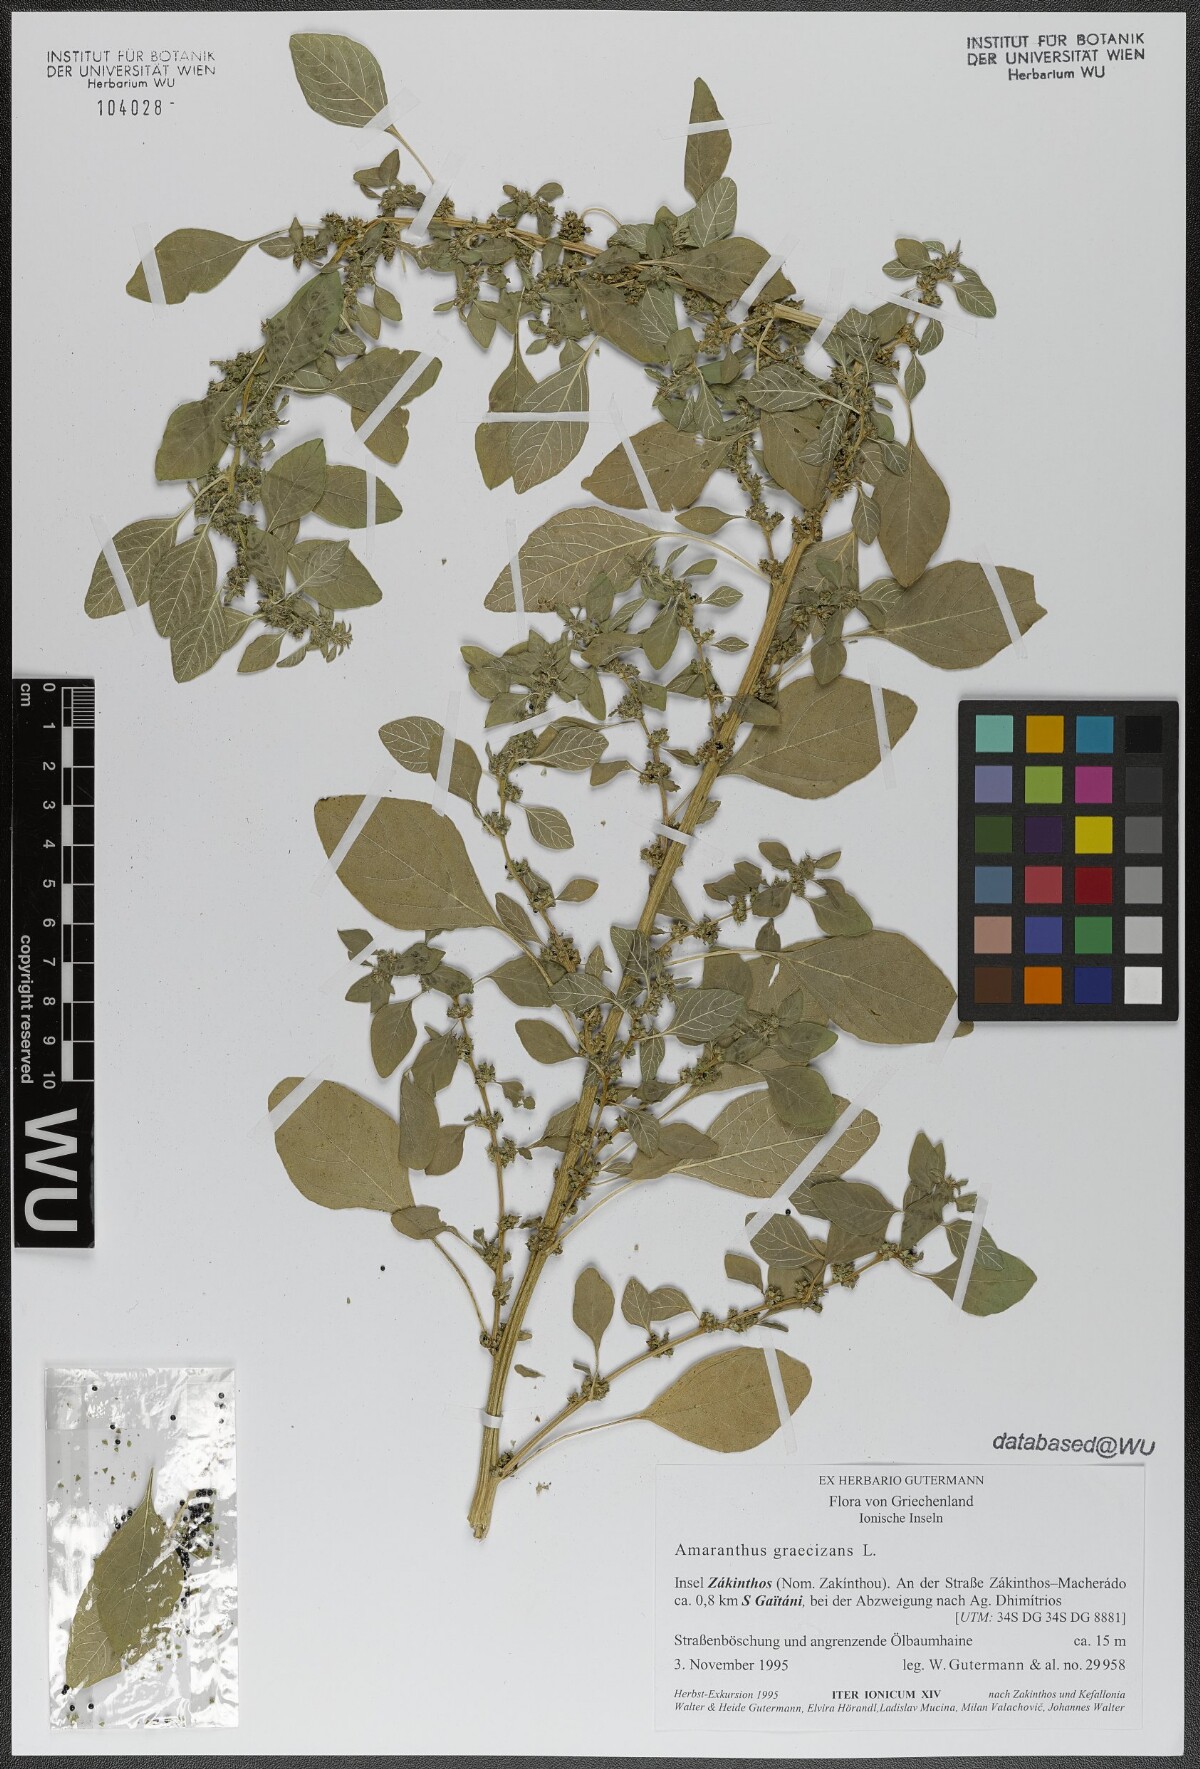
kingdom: Plantae
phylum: Tracheophyta
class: Magnoliopsida
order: Caryophyllales
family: Amaranthaceae
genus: Amaranthus
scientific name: Amaranthus graecizans
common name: Mediterranean amaranth
